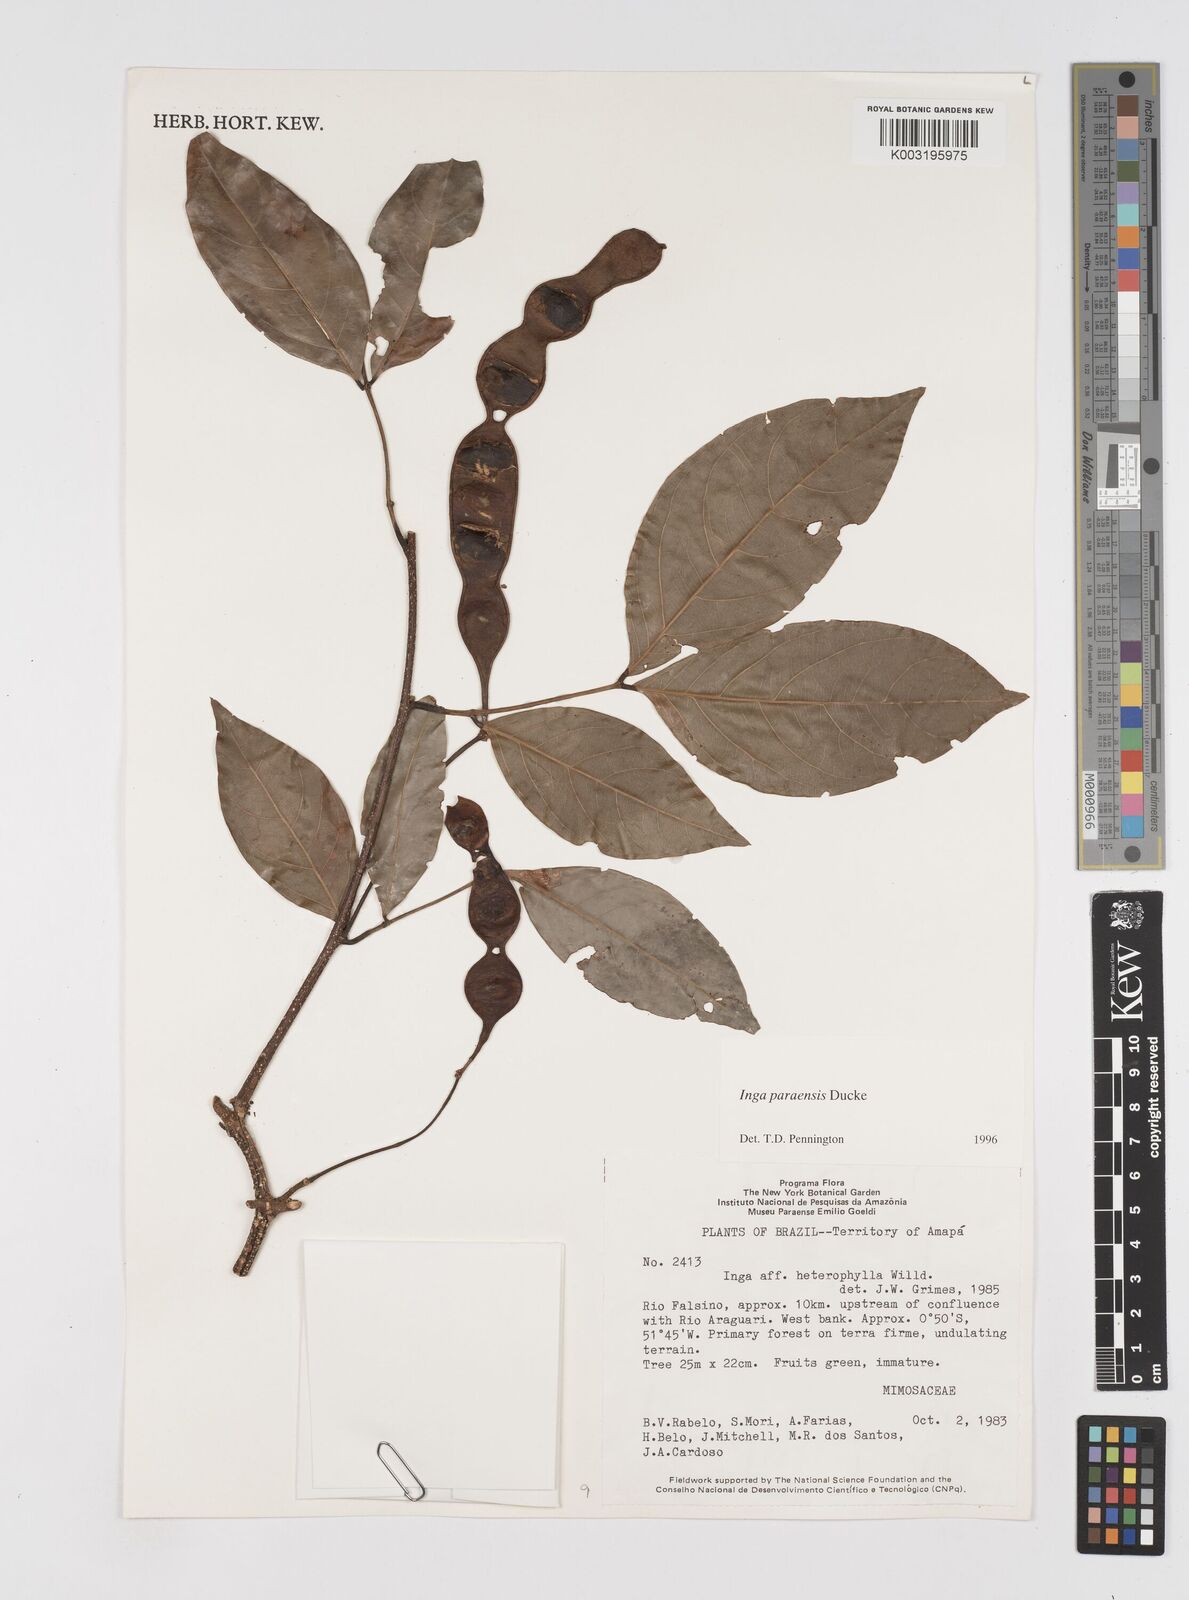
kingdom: Plantae
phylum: Tracheophyta
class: Magnoliopsida
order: Fabales
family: Fabaceae
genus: Inga
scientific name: Inga paraensis
